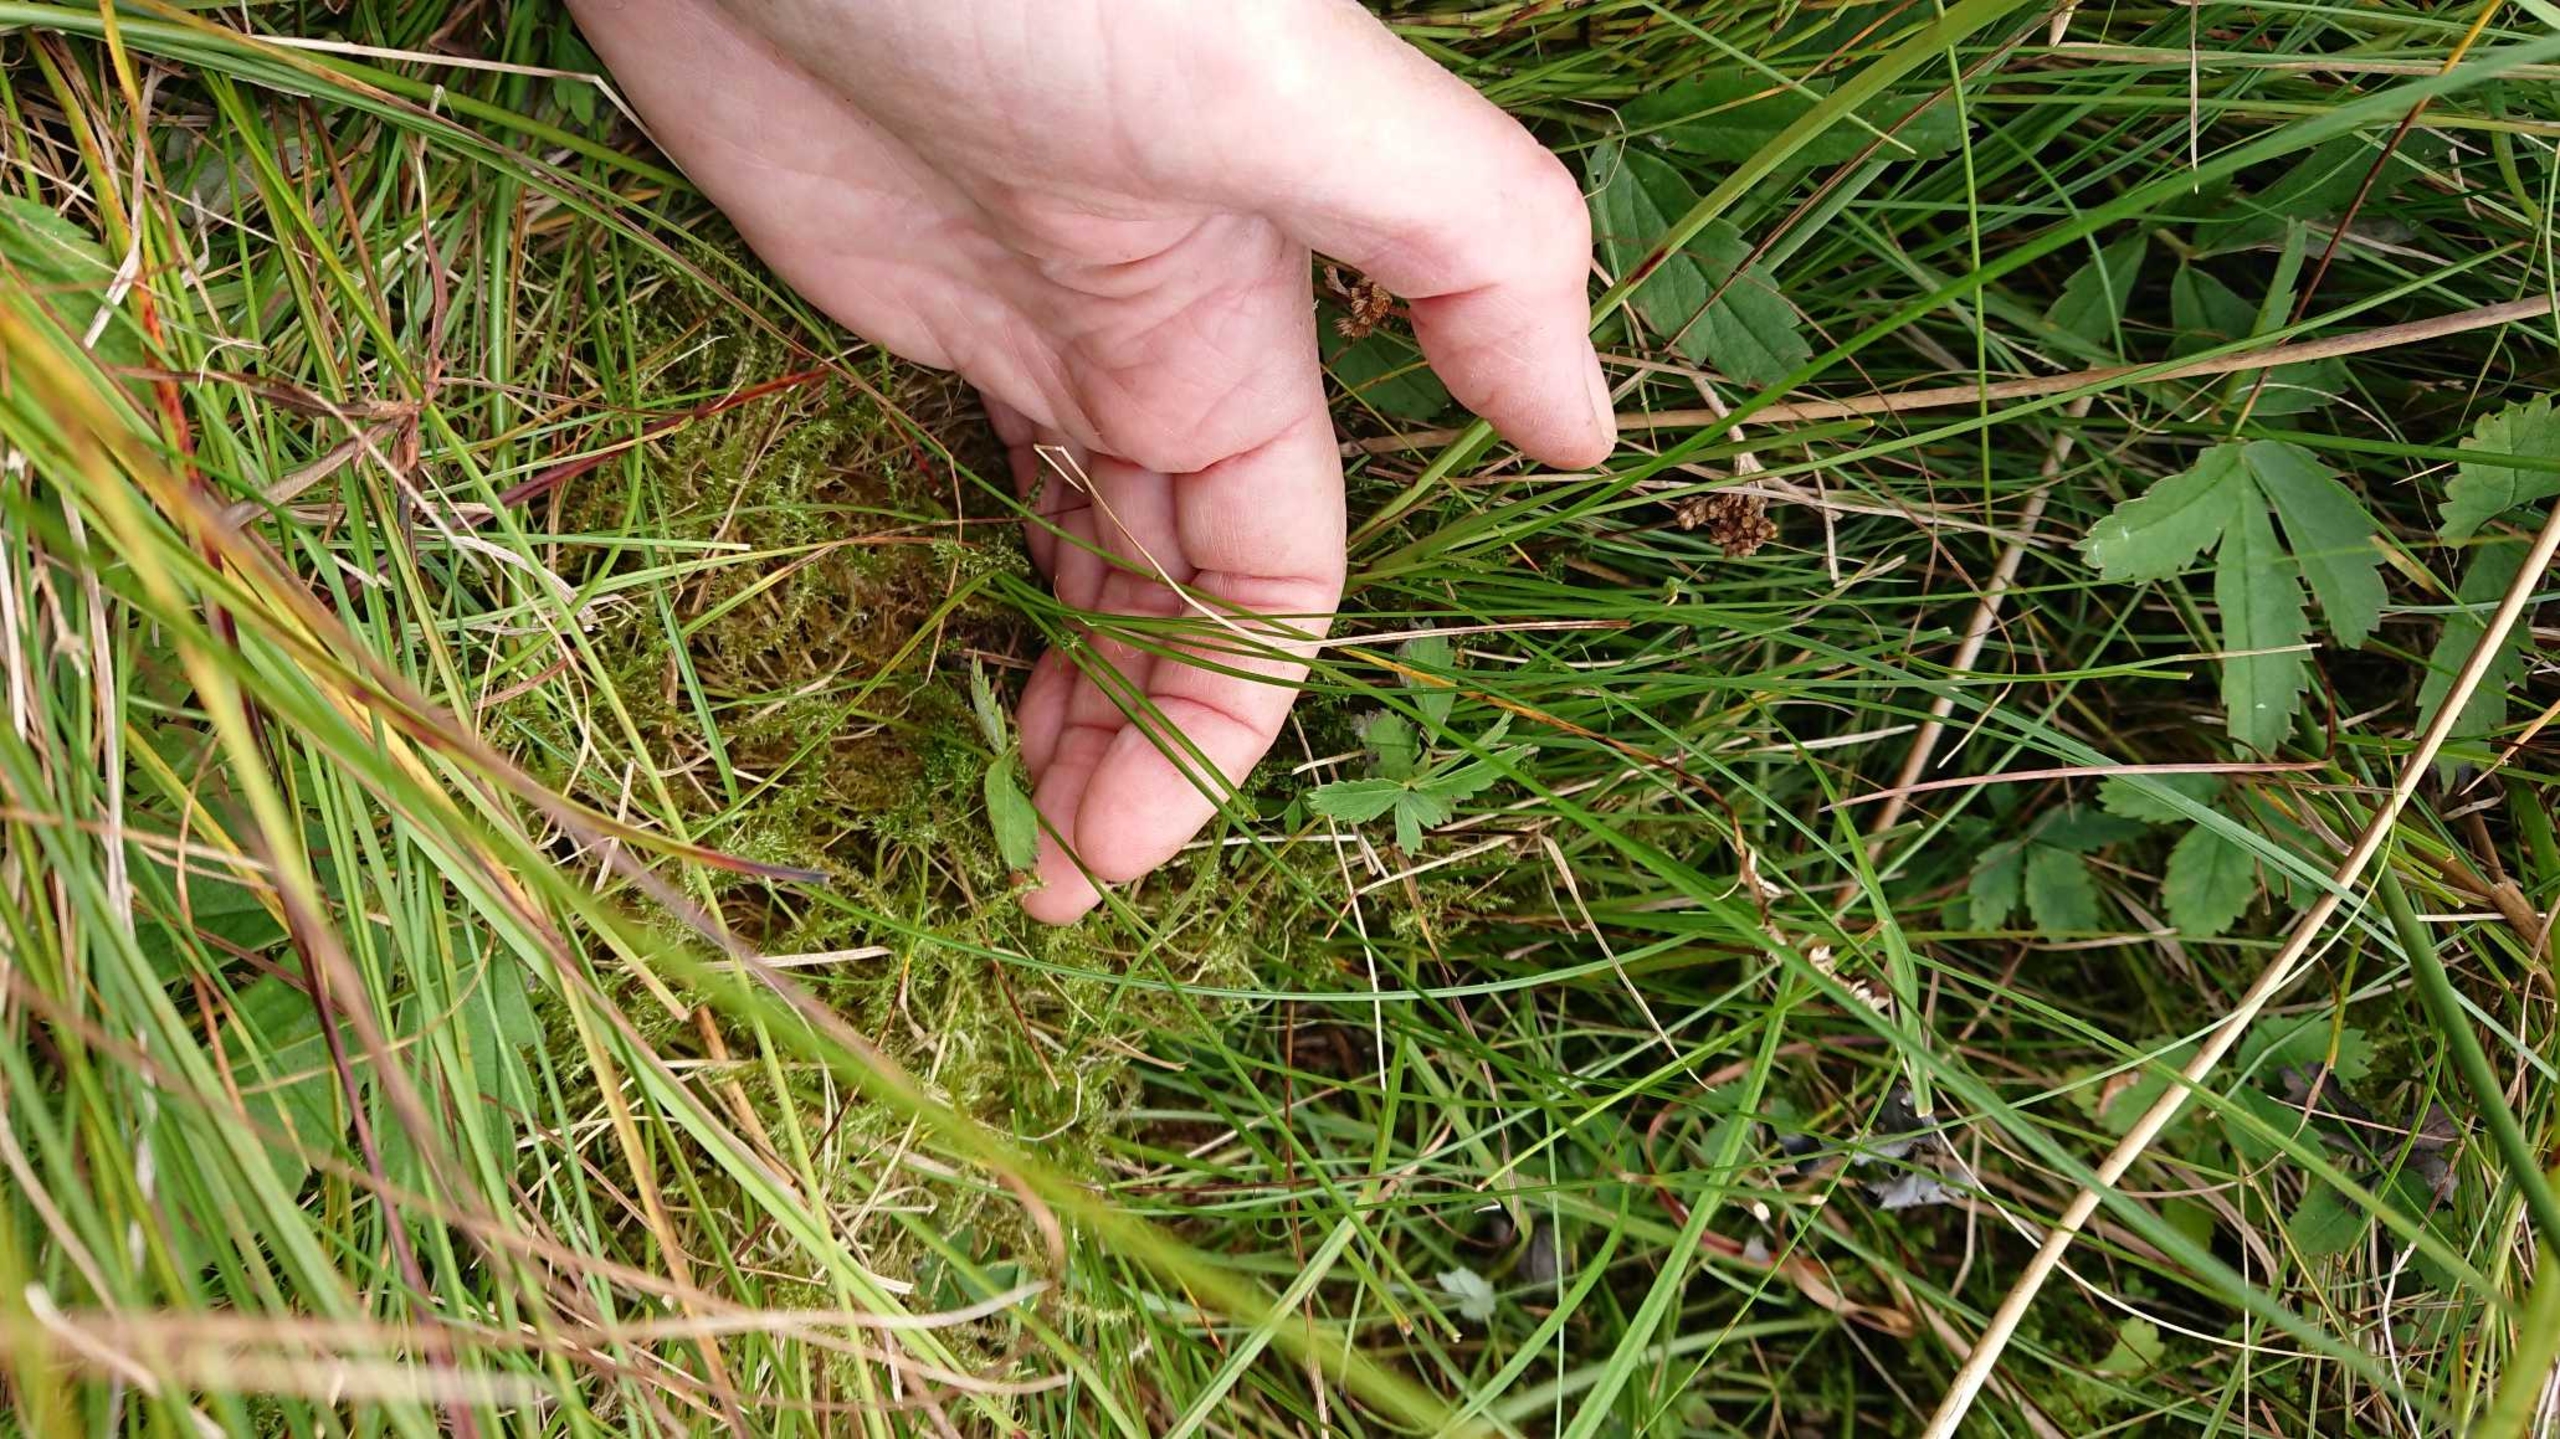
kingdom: Plantae
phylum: Tracheophyta
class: Liliopsida
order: Poales
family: Cyperaceae
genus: Carex
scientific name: Carex echinata
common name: Stjerne-star
